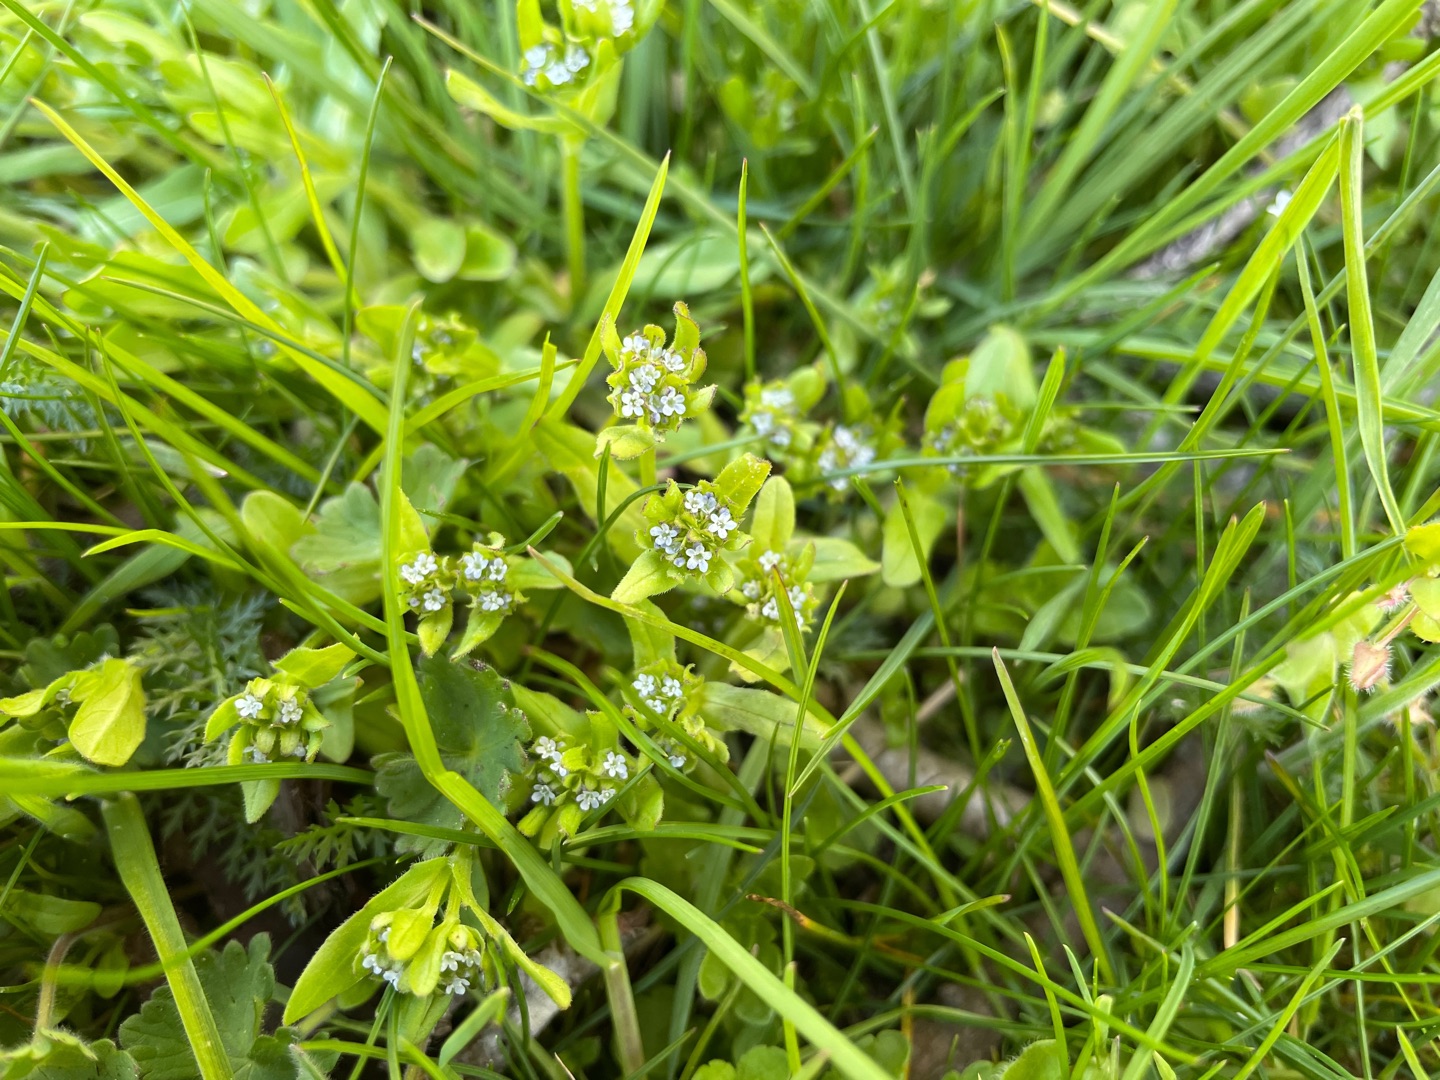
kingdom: Plantae
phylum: Tracheophyta
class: Magnoliopsida
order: Dipsacales
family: Caprifoliaceae
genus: Valerianella
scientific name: Valerianella locusta
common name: Tandfri vårsalat
